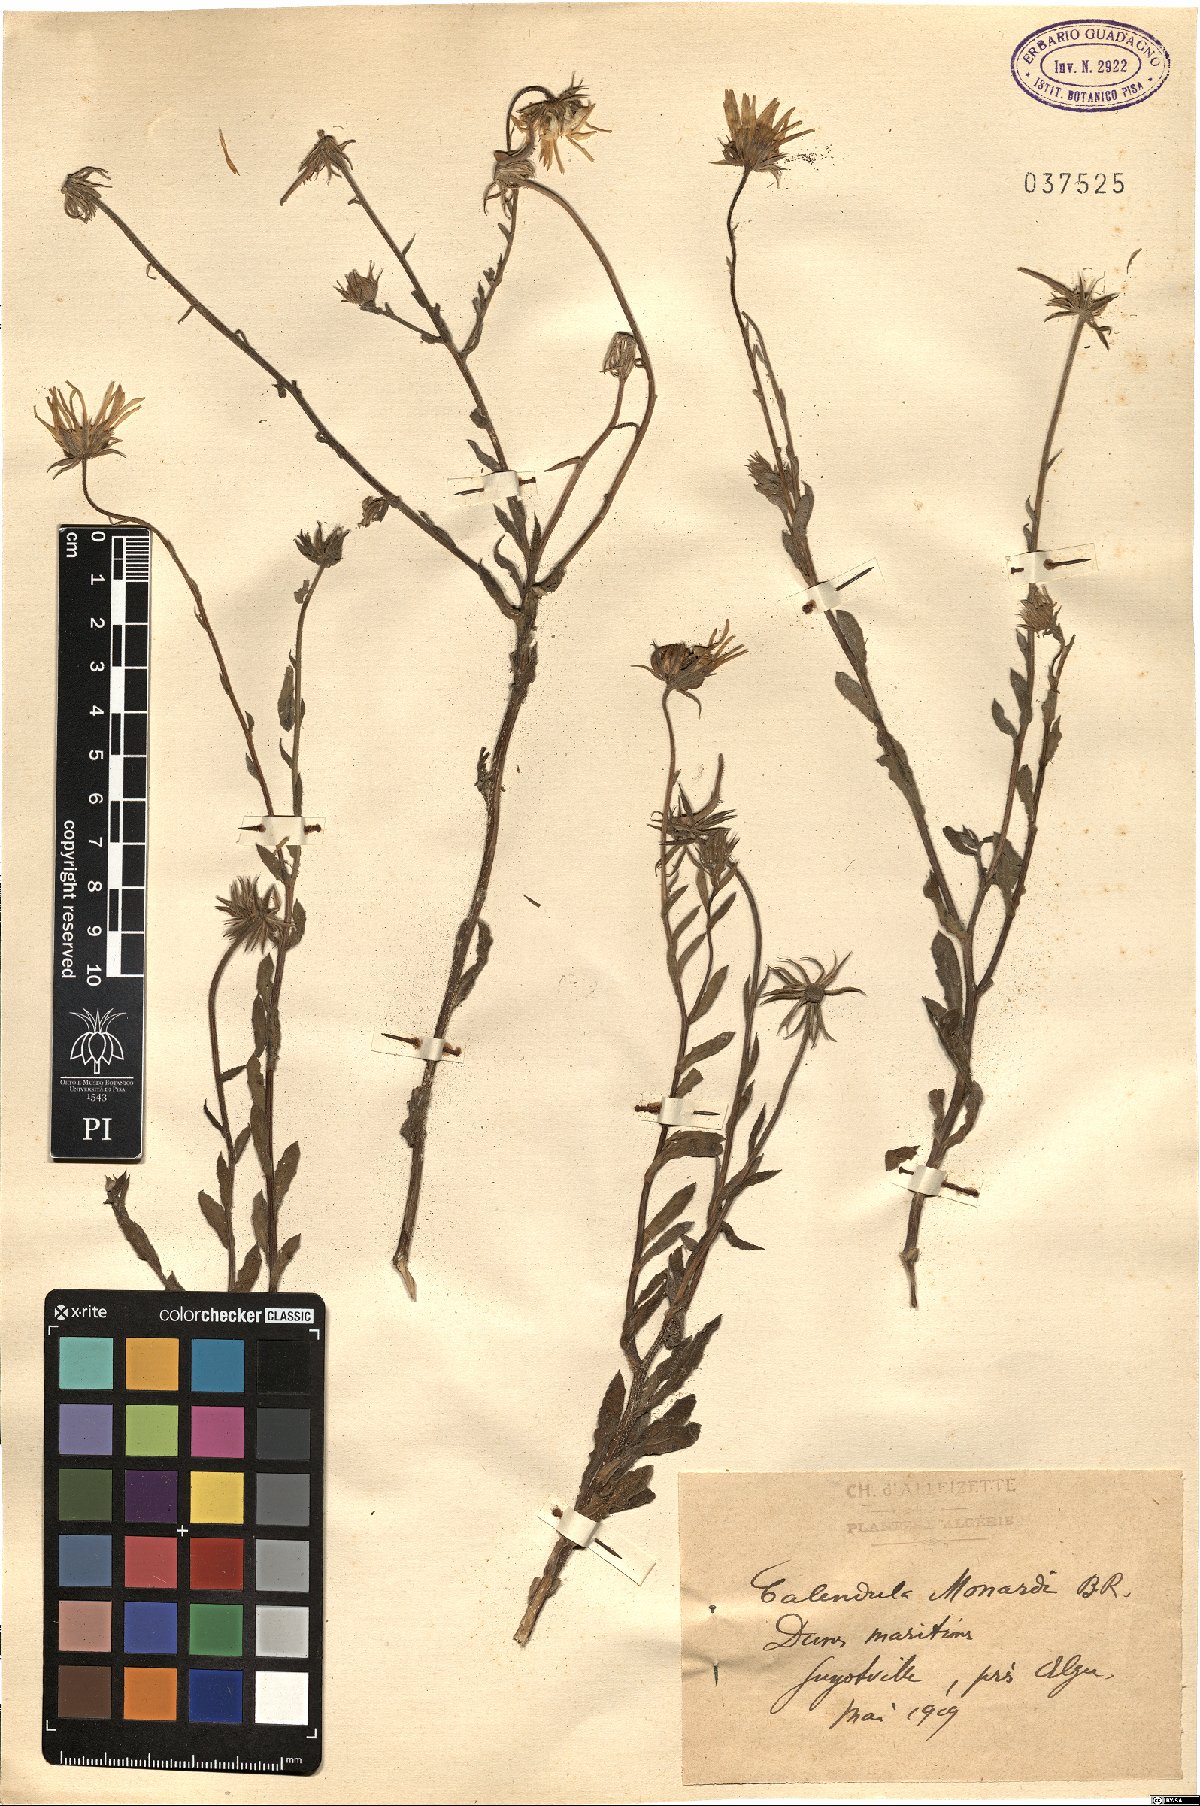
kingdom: Plantae
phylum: Tracheophyta
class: Magnoliopsida
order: Asterales
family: Asteraceae
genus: Calendula
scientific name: Calendula suffruticosa
